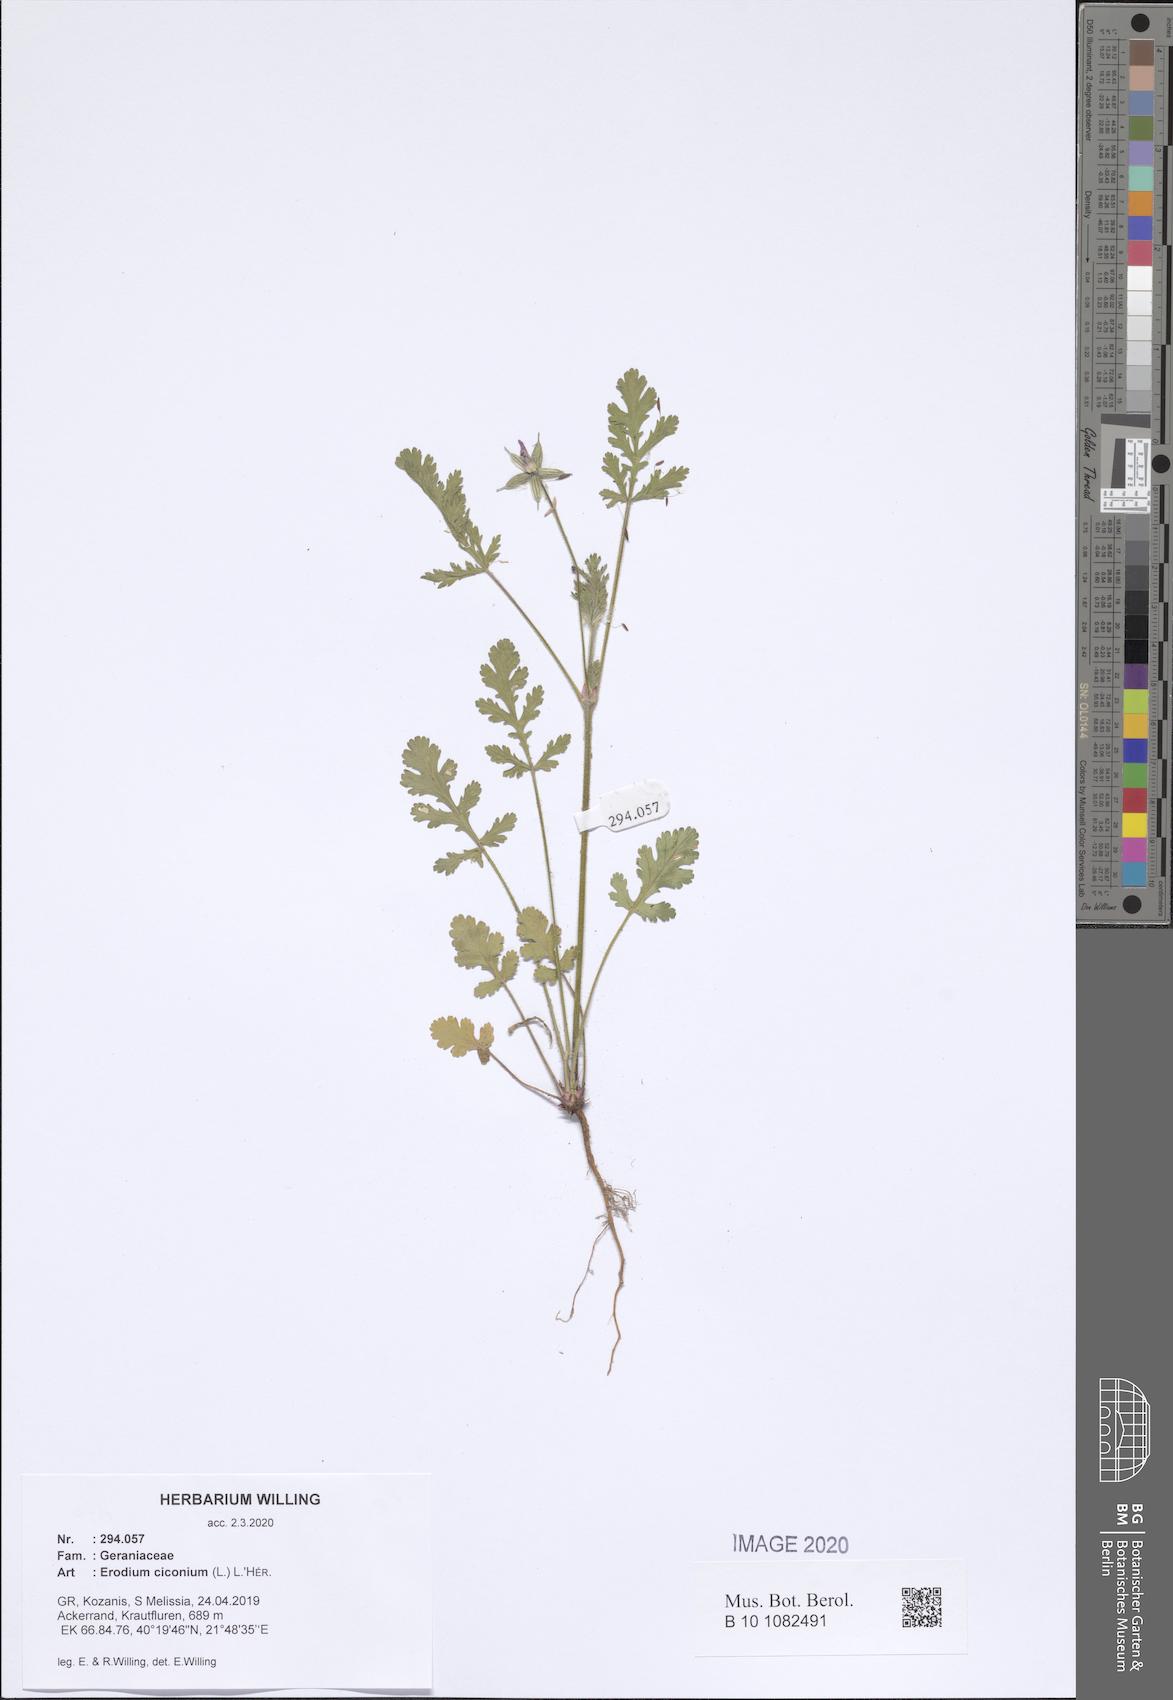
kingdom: Plantae
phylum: Tracheophyta
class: Magnoliopsida
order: Geraniales
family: Geraniaceae
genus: Erodium
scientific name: Erodium ciconium
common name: Common stork's bill
